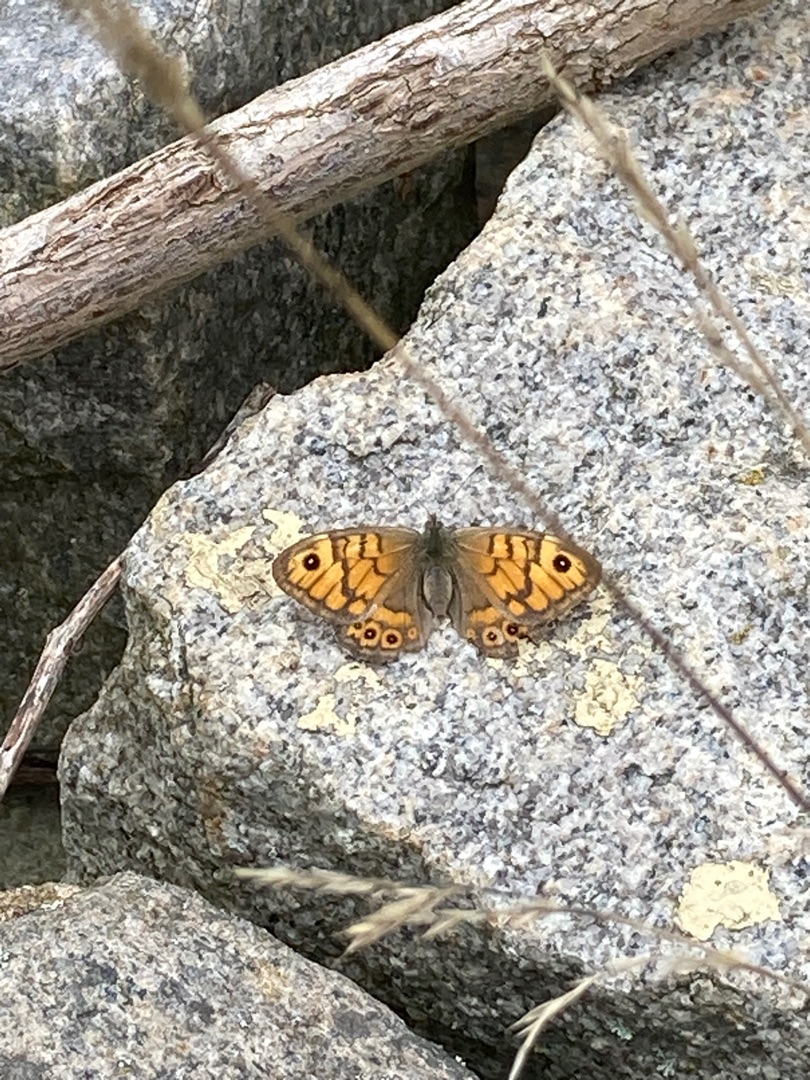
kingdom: Animalia
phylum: Arthropoda
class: Insecta
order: Lepidoptera
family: Nymphalidae
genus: Pararge
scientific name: Pararge Lasiommata megera
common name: Vejrandøje
